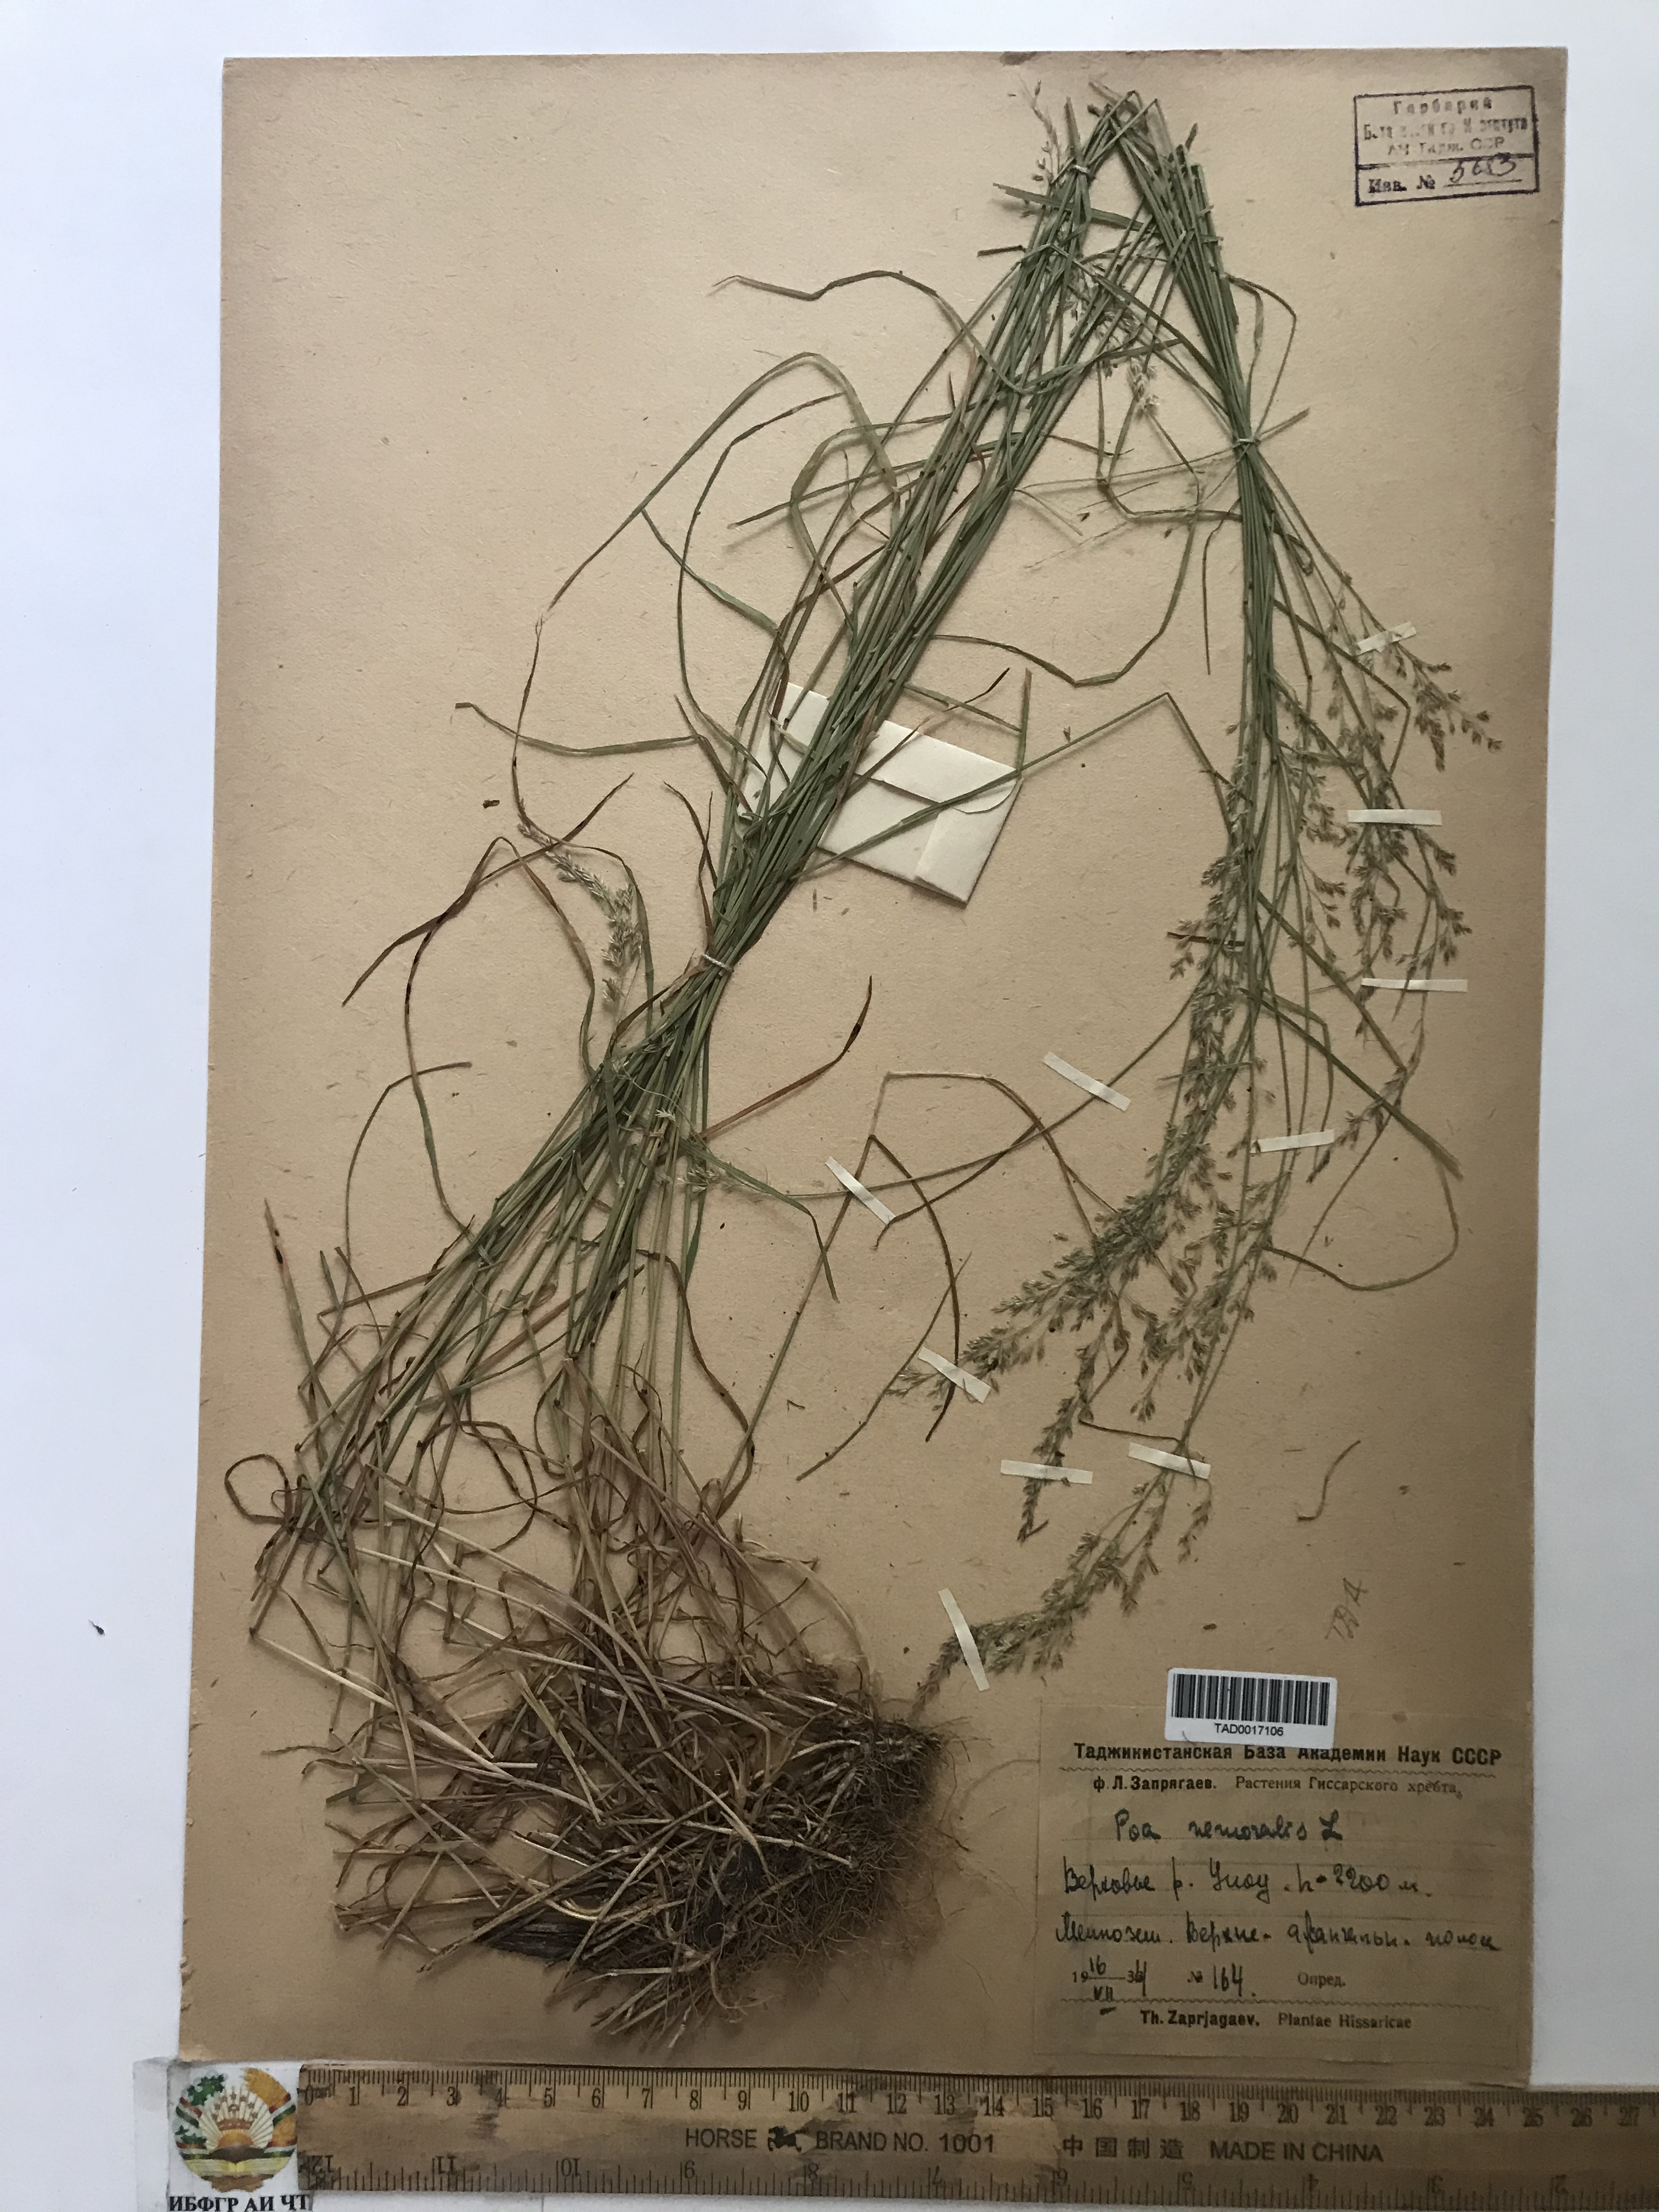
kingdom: Plantae
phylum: Tracheophyta
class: Liliopsida
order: Poales
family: Poaceae
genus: Poa
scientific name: Poa nemoralis
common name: Wood bluegrass
